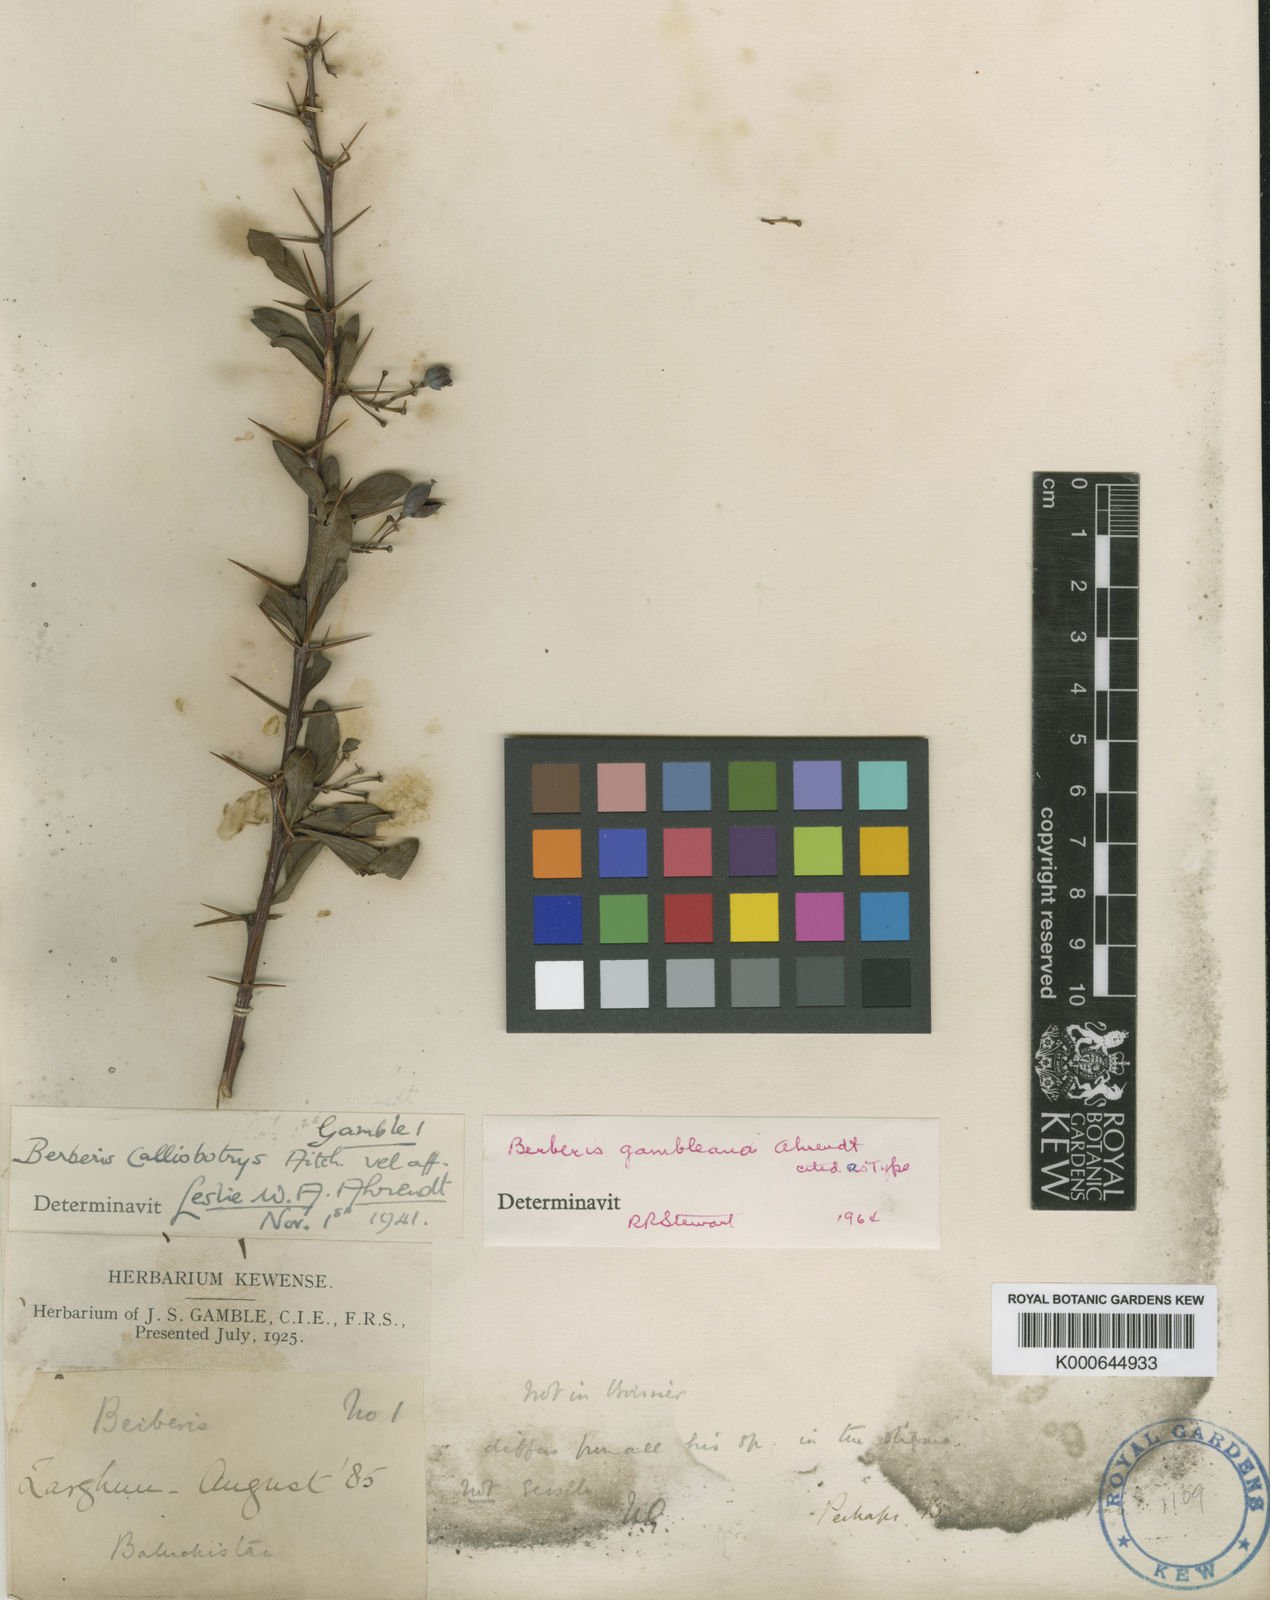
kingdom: Plantae
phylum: Tracheophyta
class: Magnoliopsida
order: Ranunculales
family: Berberidaceae
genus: Berberis
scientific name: Berberis calliobotrys
